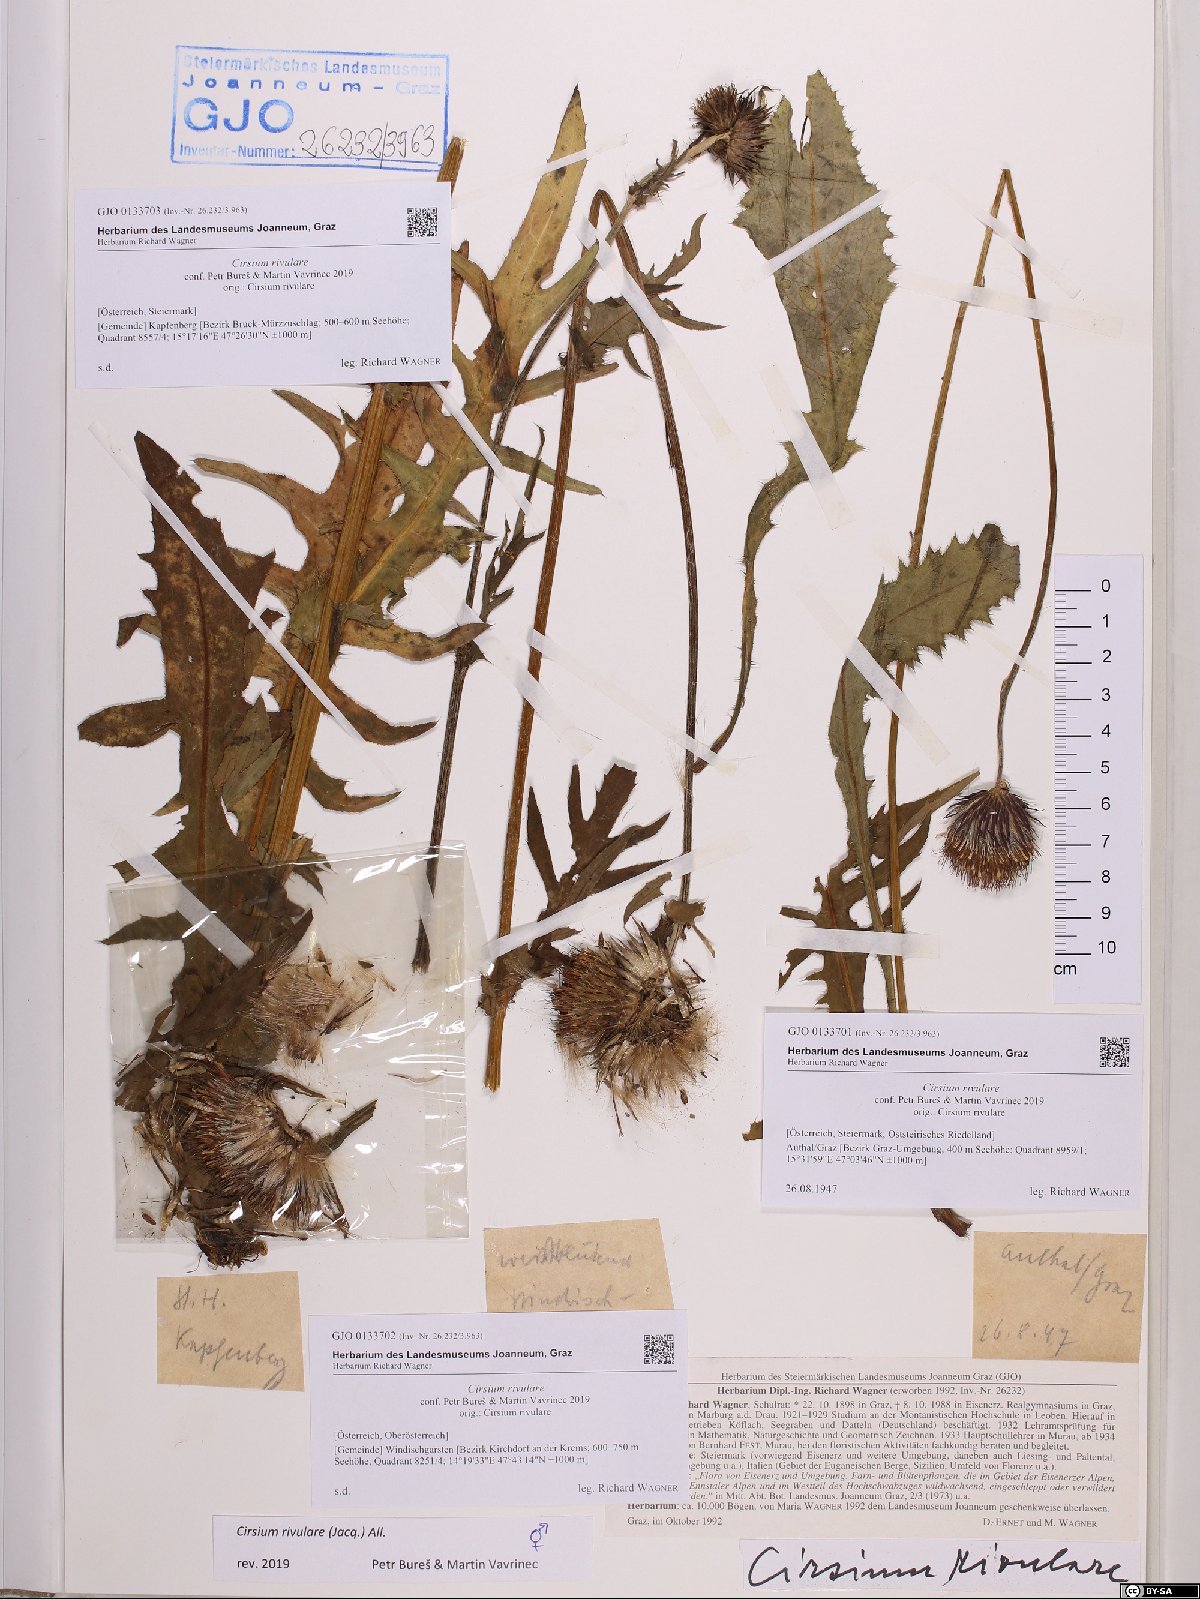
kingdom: Plantae
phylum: Tracheophyta
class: Magnoliopsida
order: Asterales
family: Asteraceae
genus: Cirsium
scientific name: Cirsium rivulare
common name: Brook thistle
